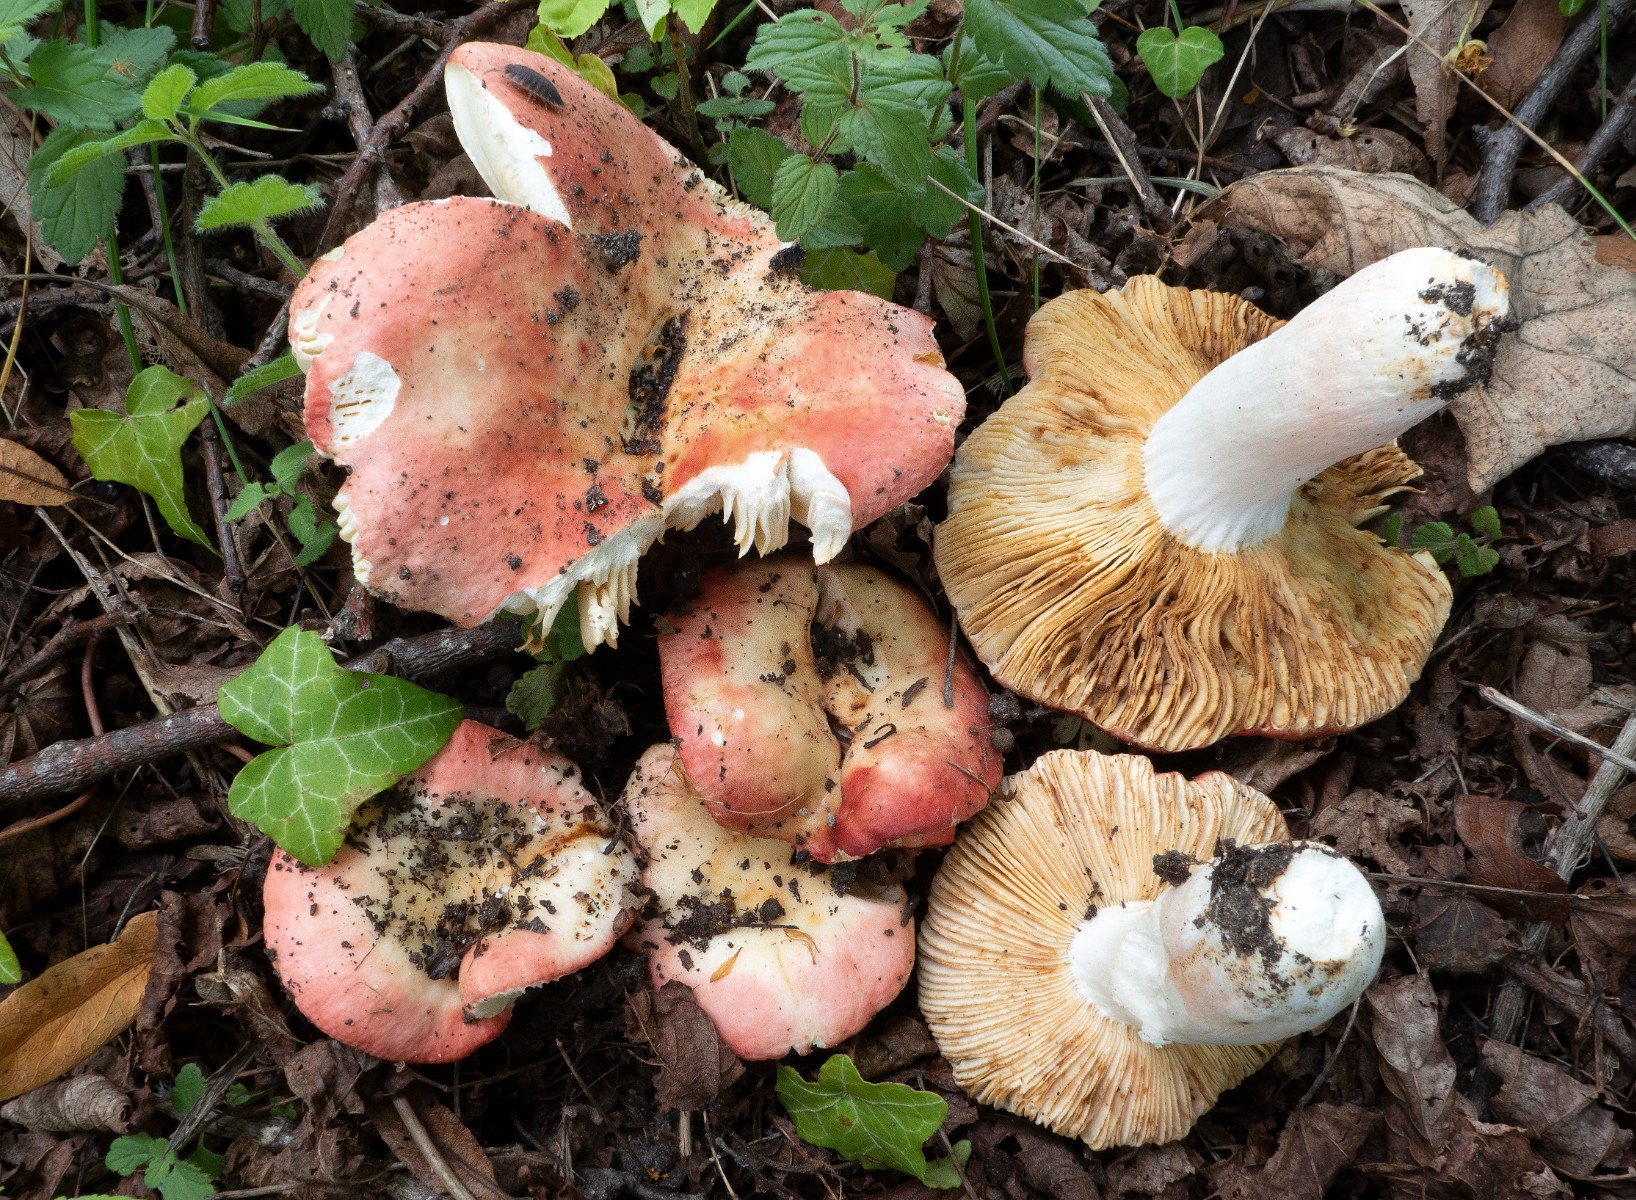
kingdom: Fungi
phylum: Basidiomycota
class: Agaricomycetes
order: Russulales
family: Russulaceae
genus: Russula
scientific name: Russula maculata
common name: plettet skørhat
